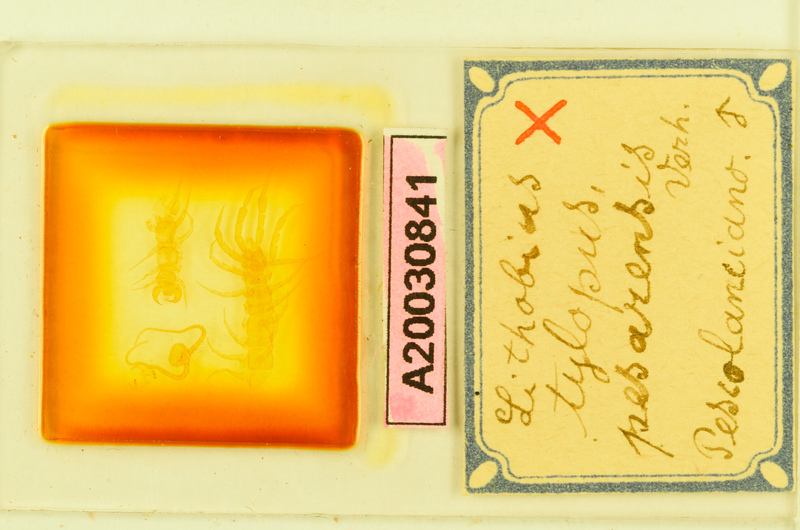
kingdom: Animalia
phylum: Arthropoda
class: Chilopoda
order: Lithobiomorpha
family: Lithobiidae
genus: Lithobius
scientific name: Lithobius tylopus
